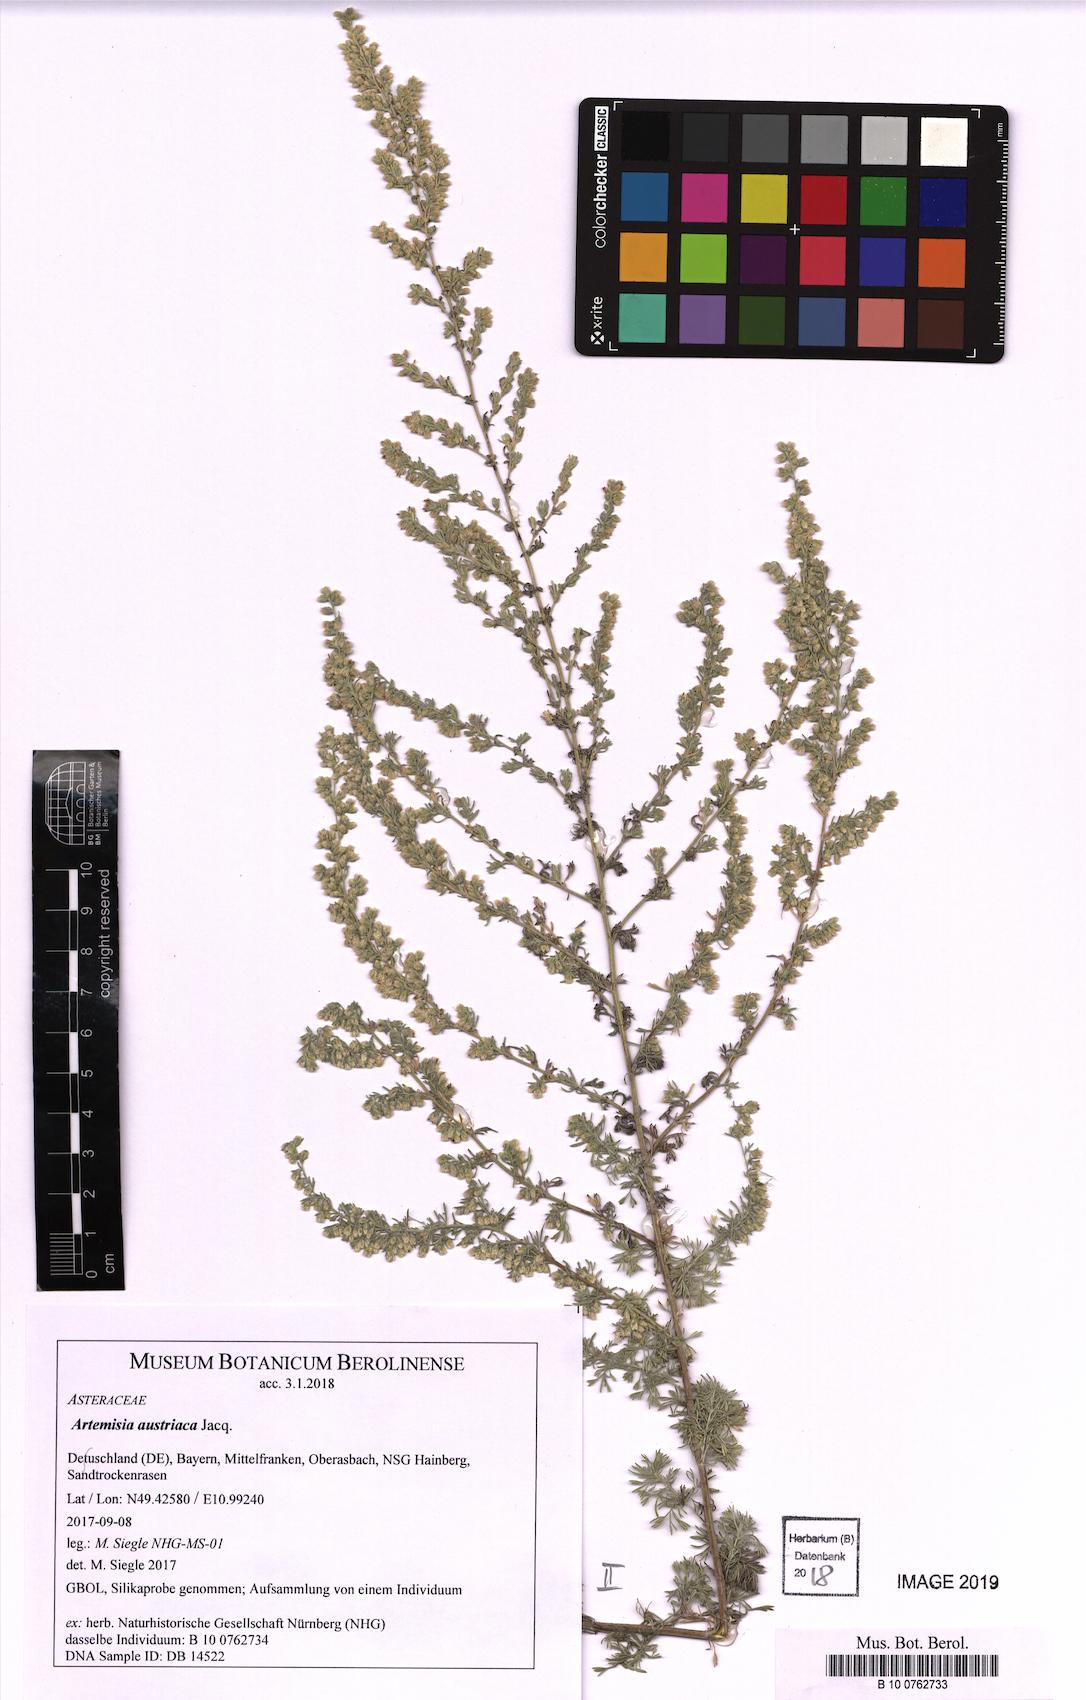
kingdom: Plantae
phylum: Tracheophyta
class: Magnoliopsida
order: Asterales
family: Asteraceae
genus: Artemisia
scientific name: Artemisia repens
